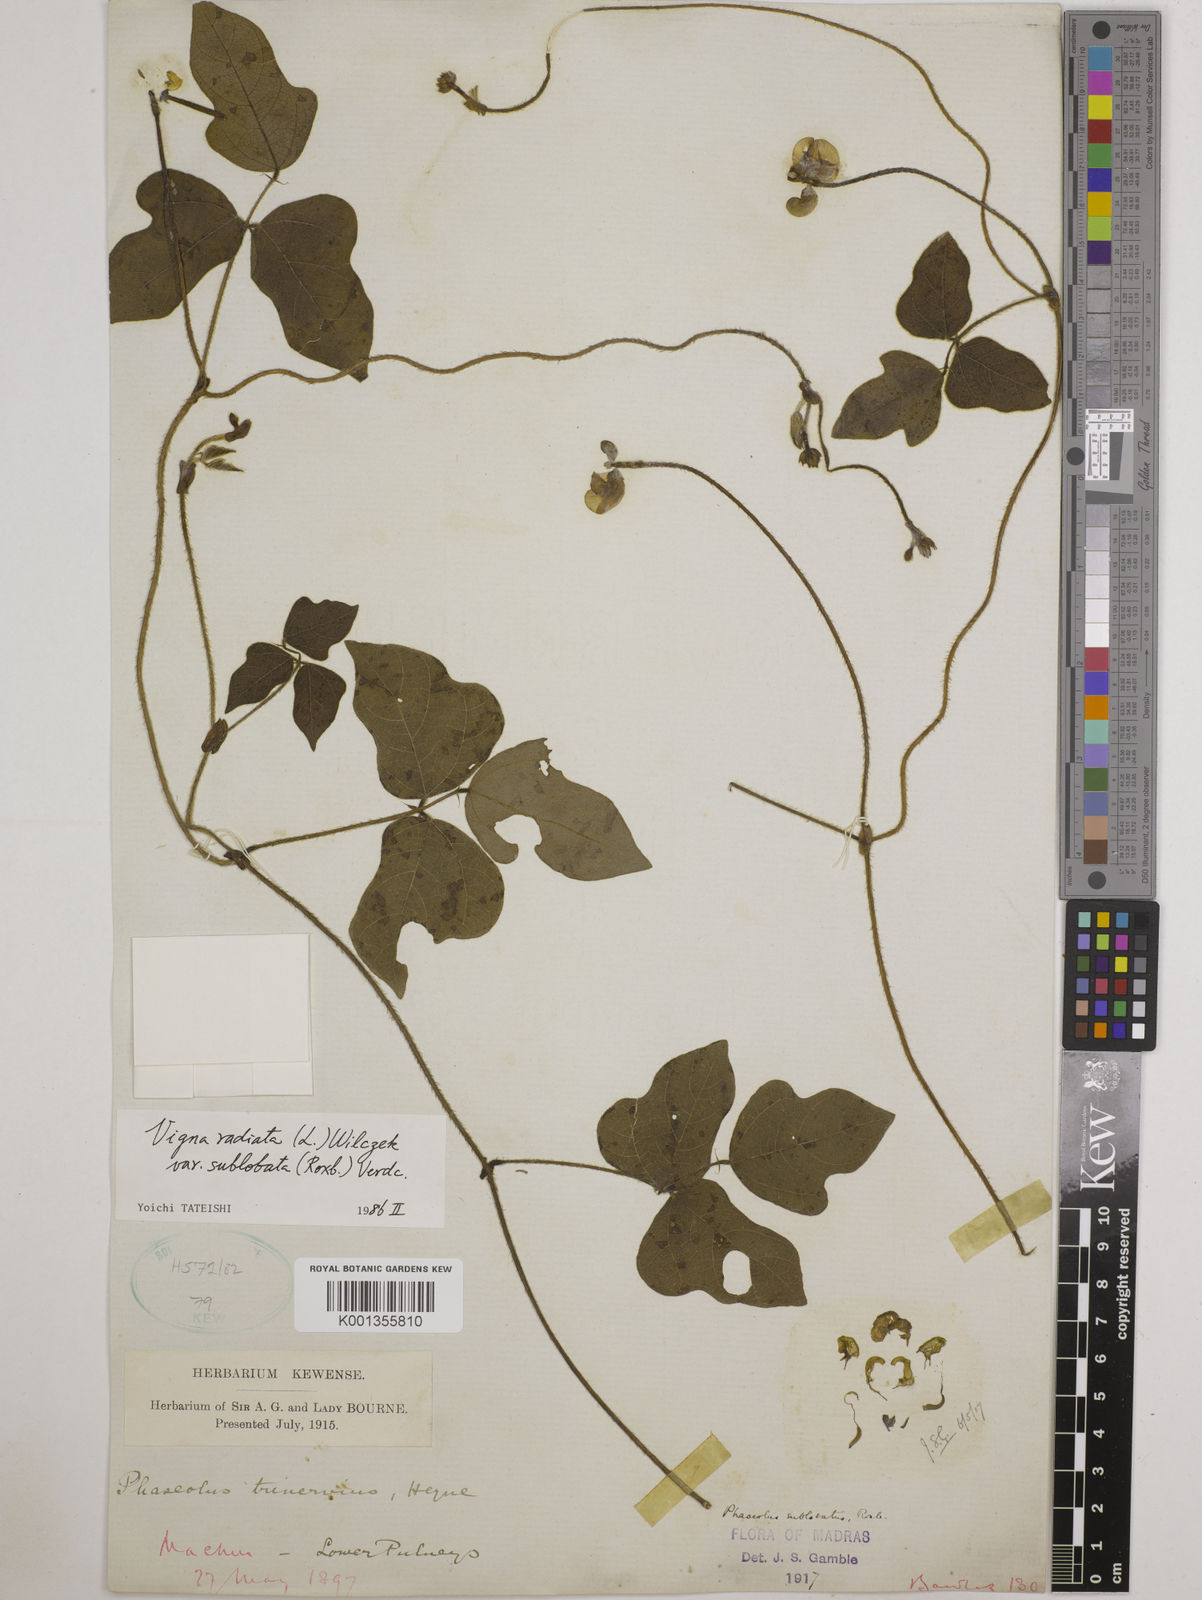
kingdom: Plantae
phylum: Tracheophyta
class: Magnoliopsida
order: Fabales
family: Fabaceae
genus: Vigna
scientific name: Vigna radiata
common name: Mung-bean
